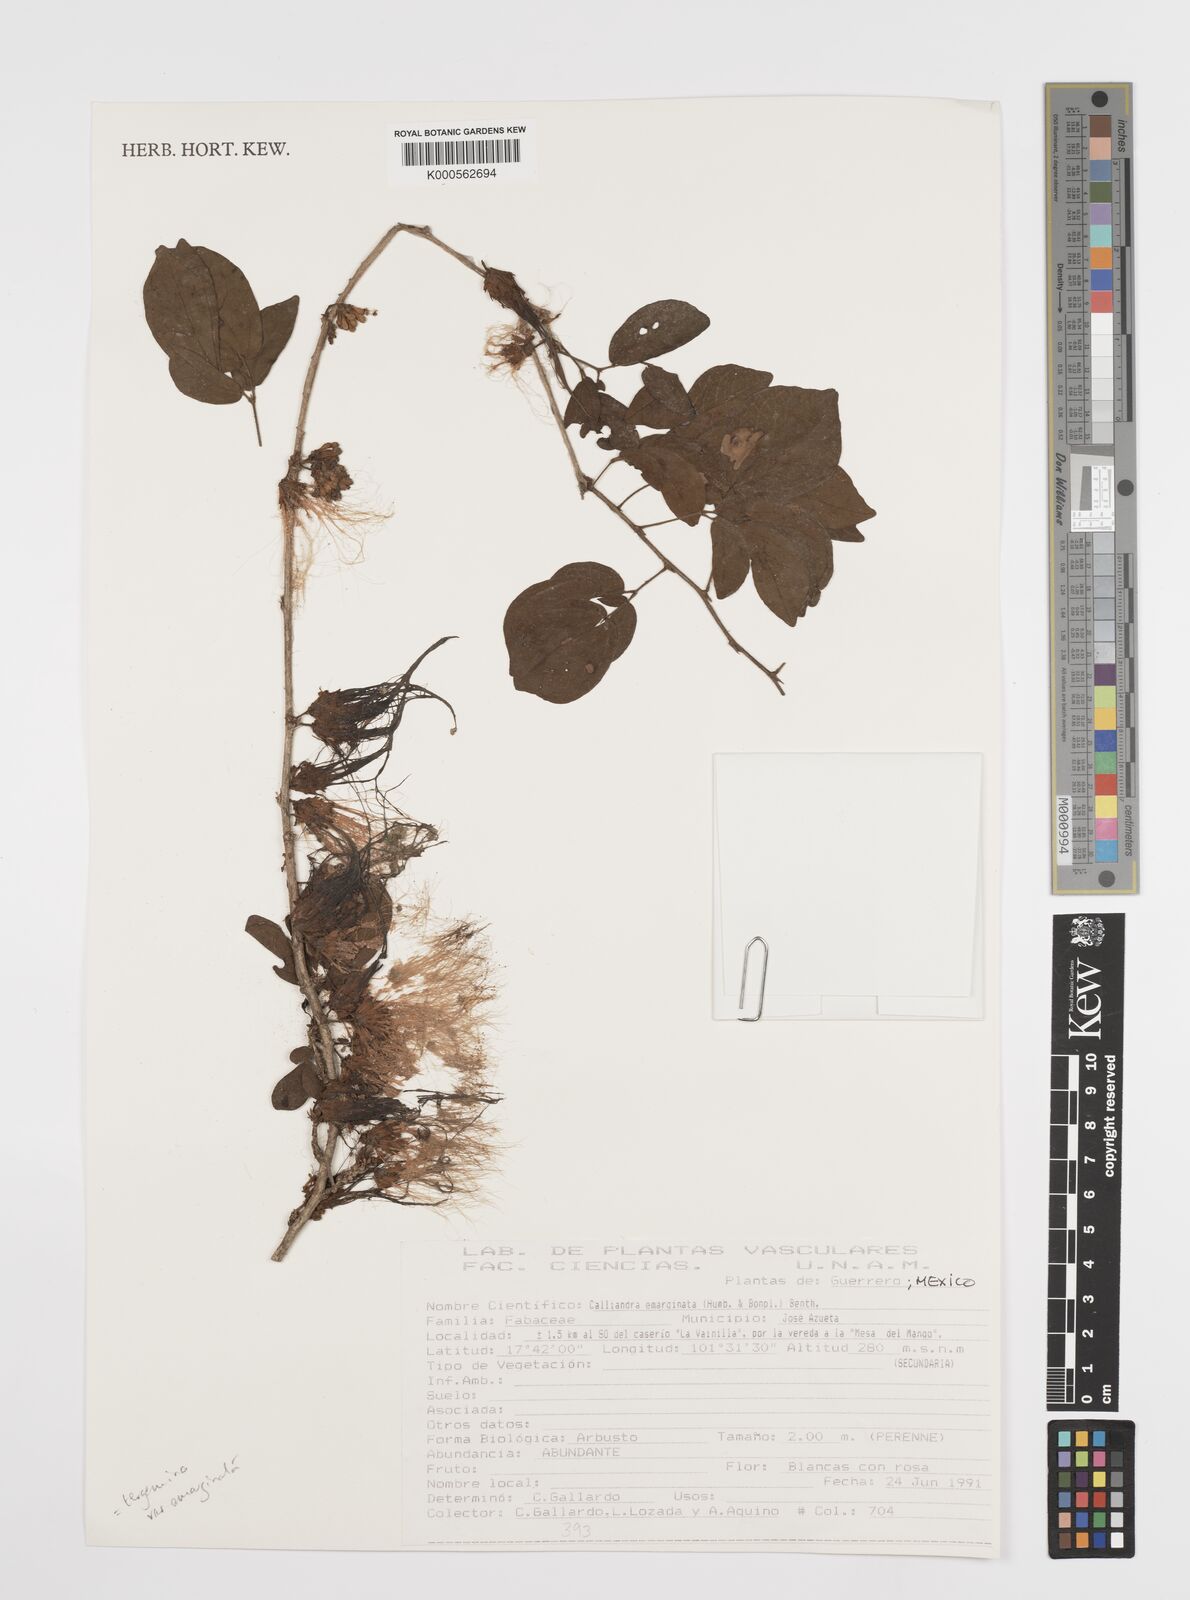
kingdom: Plantae
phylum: Tracheophyta
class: Magnoliopsida
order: Fabales
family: Fabaceae
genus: Calliandra
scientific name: Calliandra tergemina
